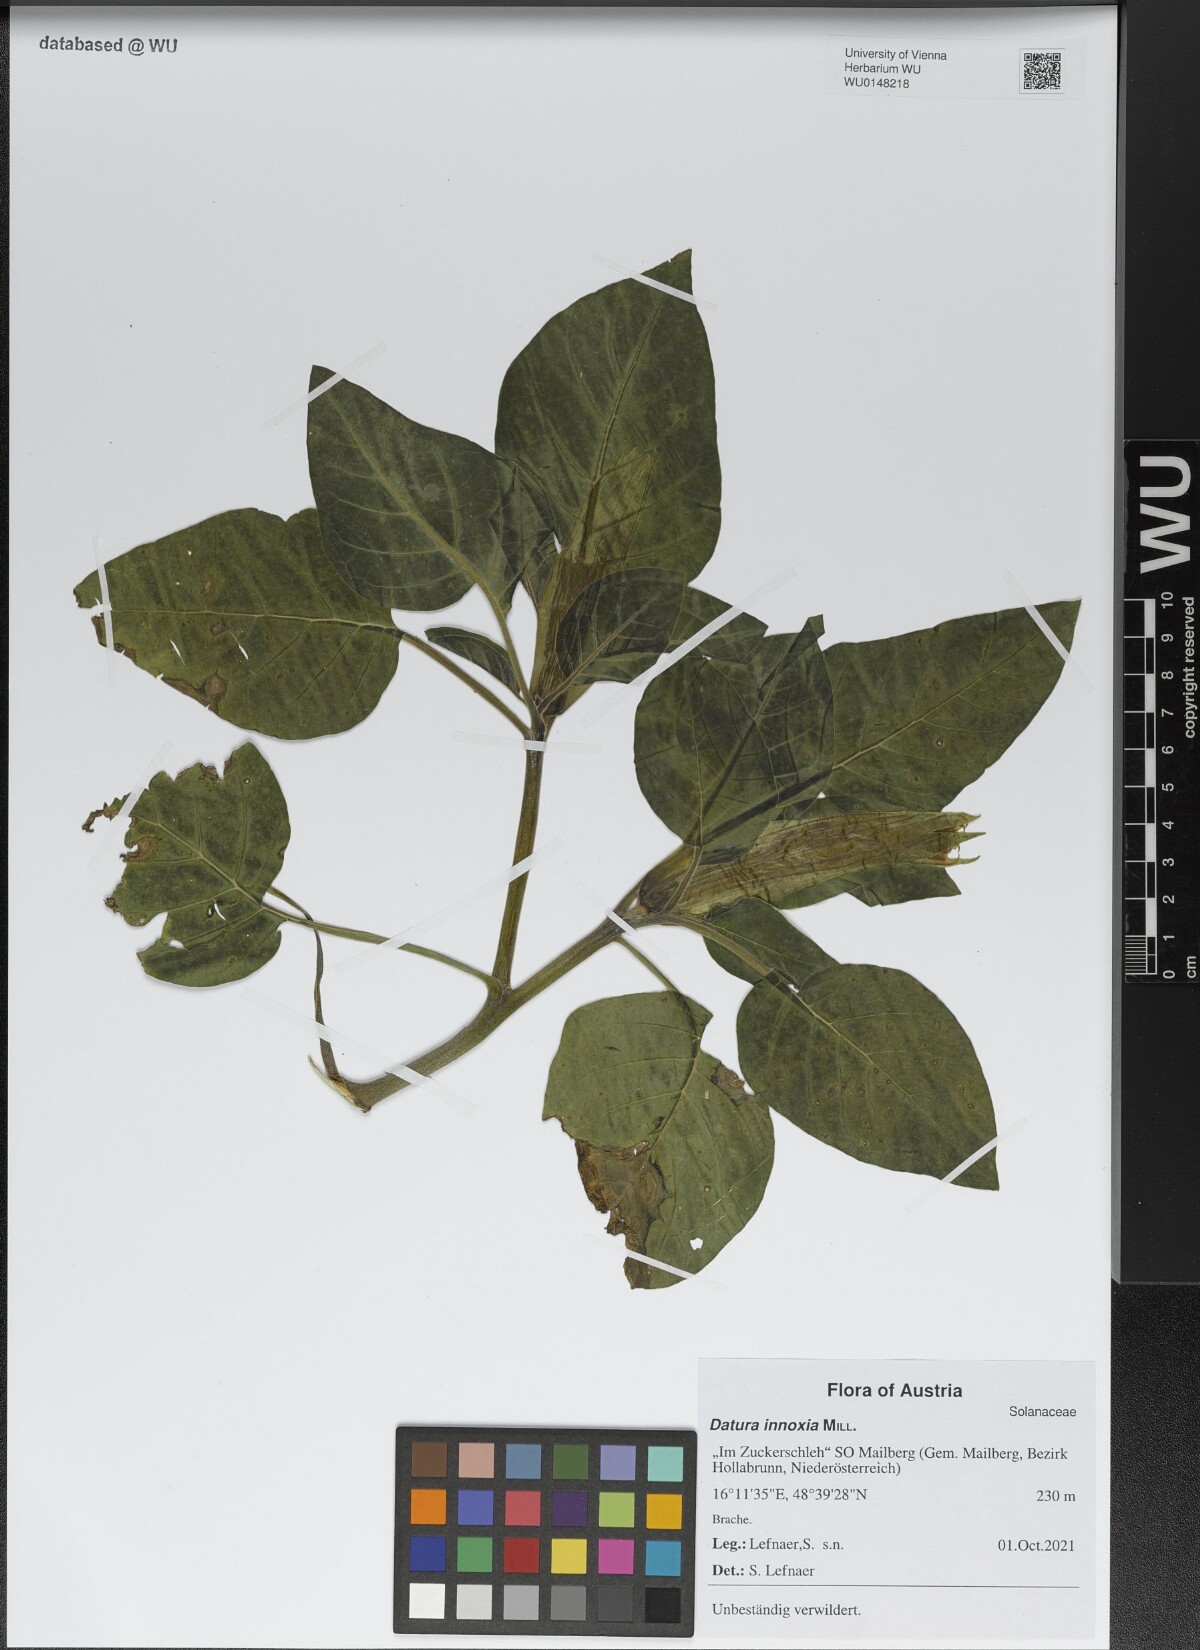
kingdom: Plantae
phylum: Tracheophyta
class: Magnoliopsida
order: Solanales
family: Solanaceae
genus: Datura
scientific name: Datura innoxia
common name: Downy thorn-apple
